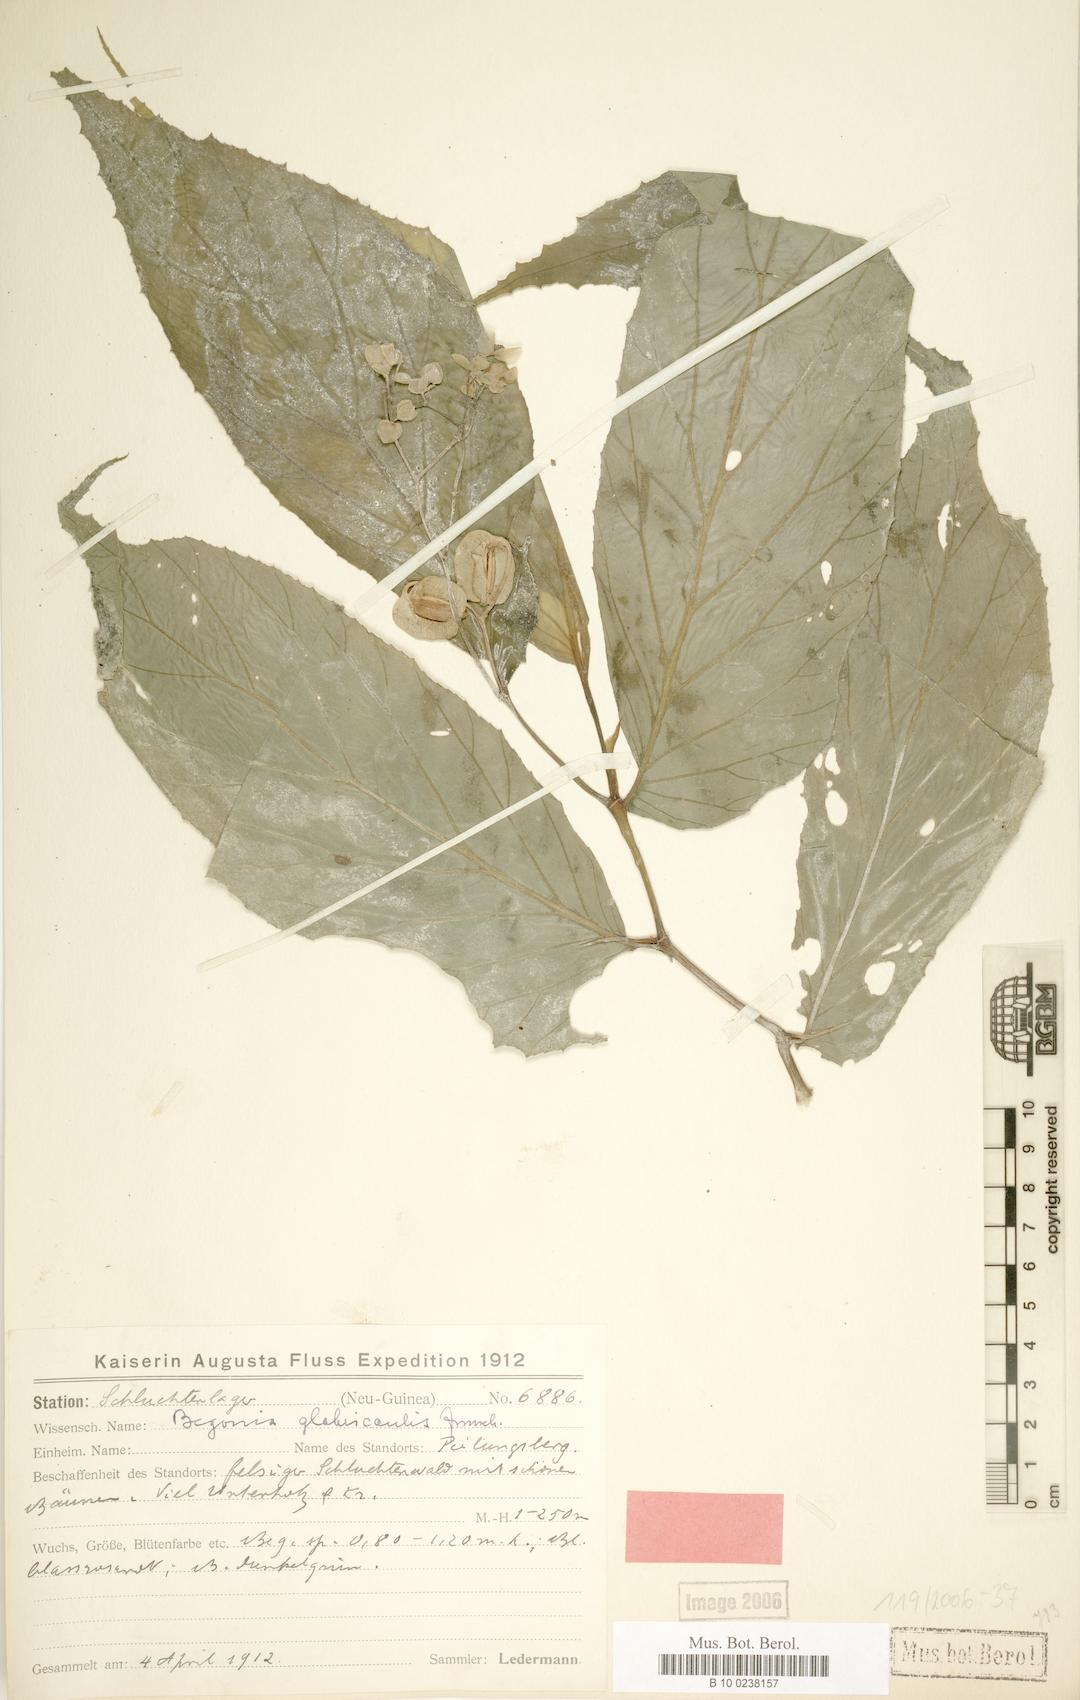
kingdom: Plantae
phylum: Tracheophyta
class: Magnoliopsida
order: Cucurbitales
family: Begoniaceae
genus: Begonia
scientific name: Begonia glabricaulis
